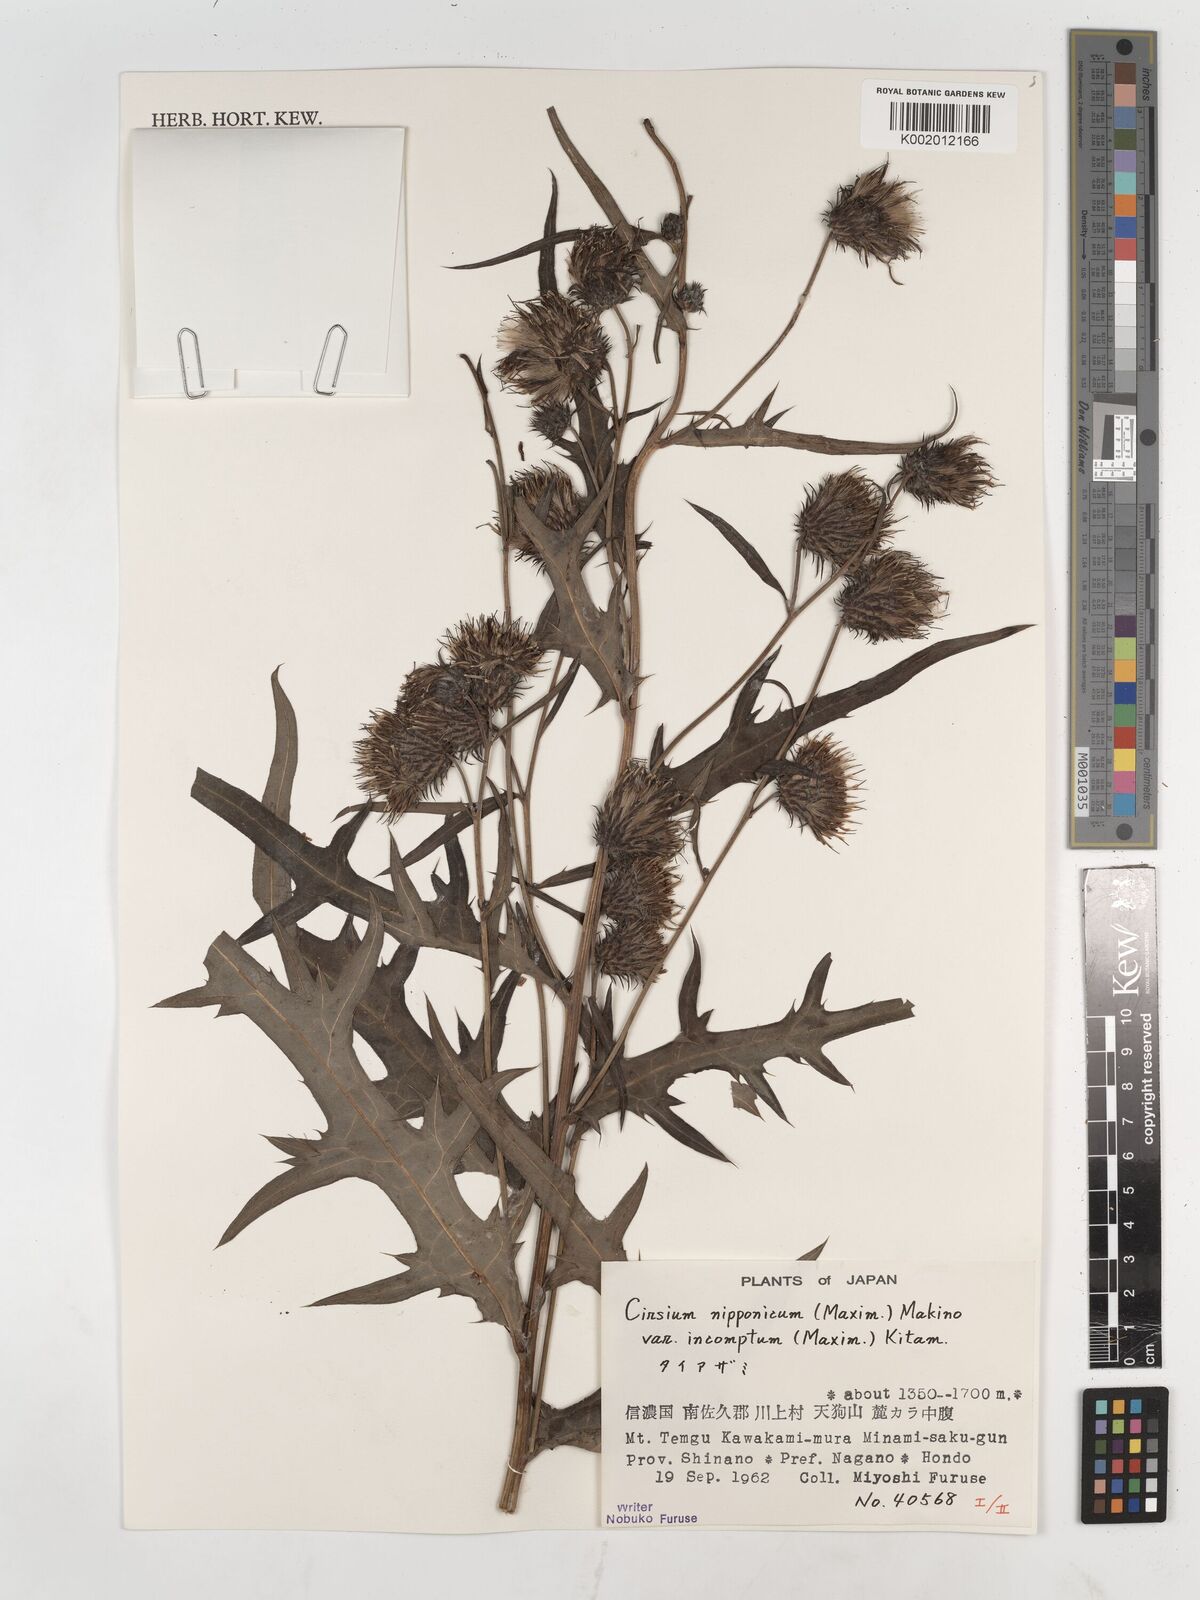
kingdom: Plantae
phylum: Tracheophyta
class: Magnoliopsida
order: Asterales
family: Asteraceae
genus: Cirsium
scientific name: Cirsium nipponicum
